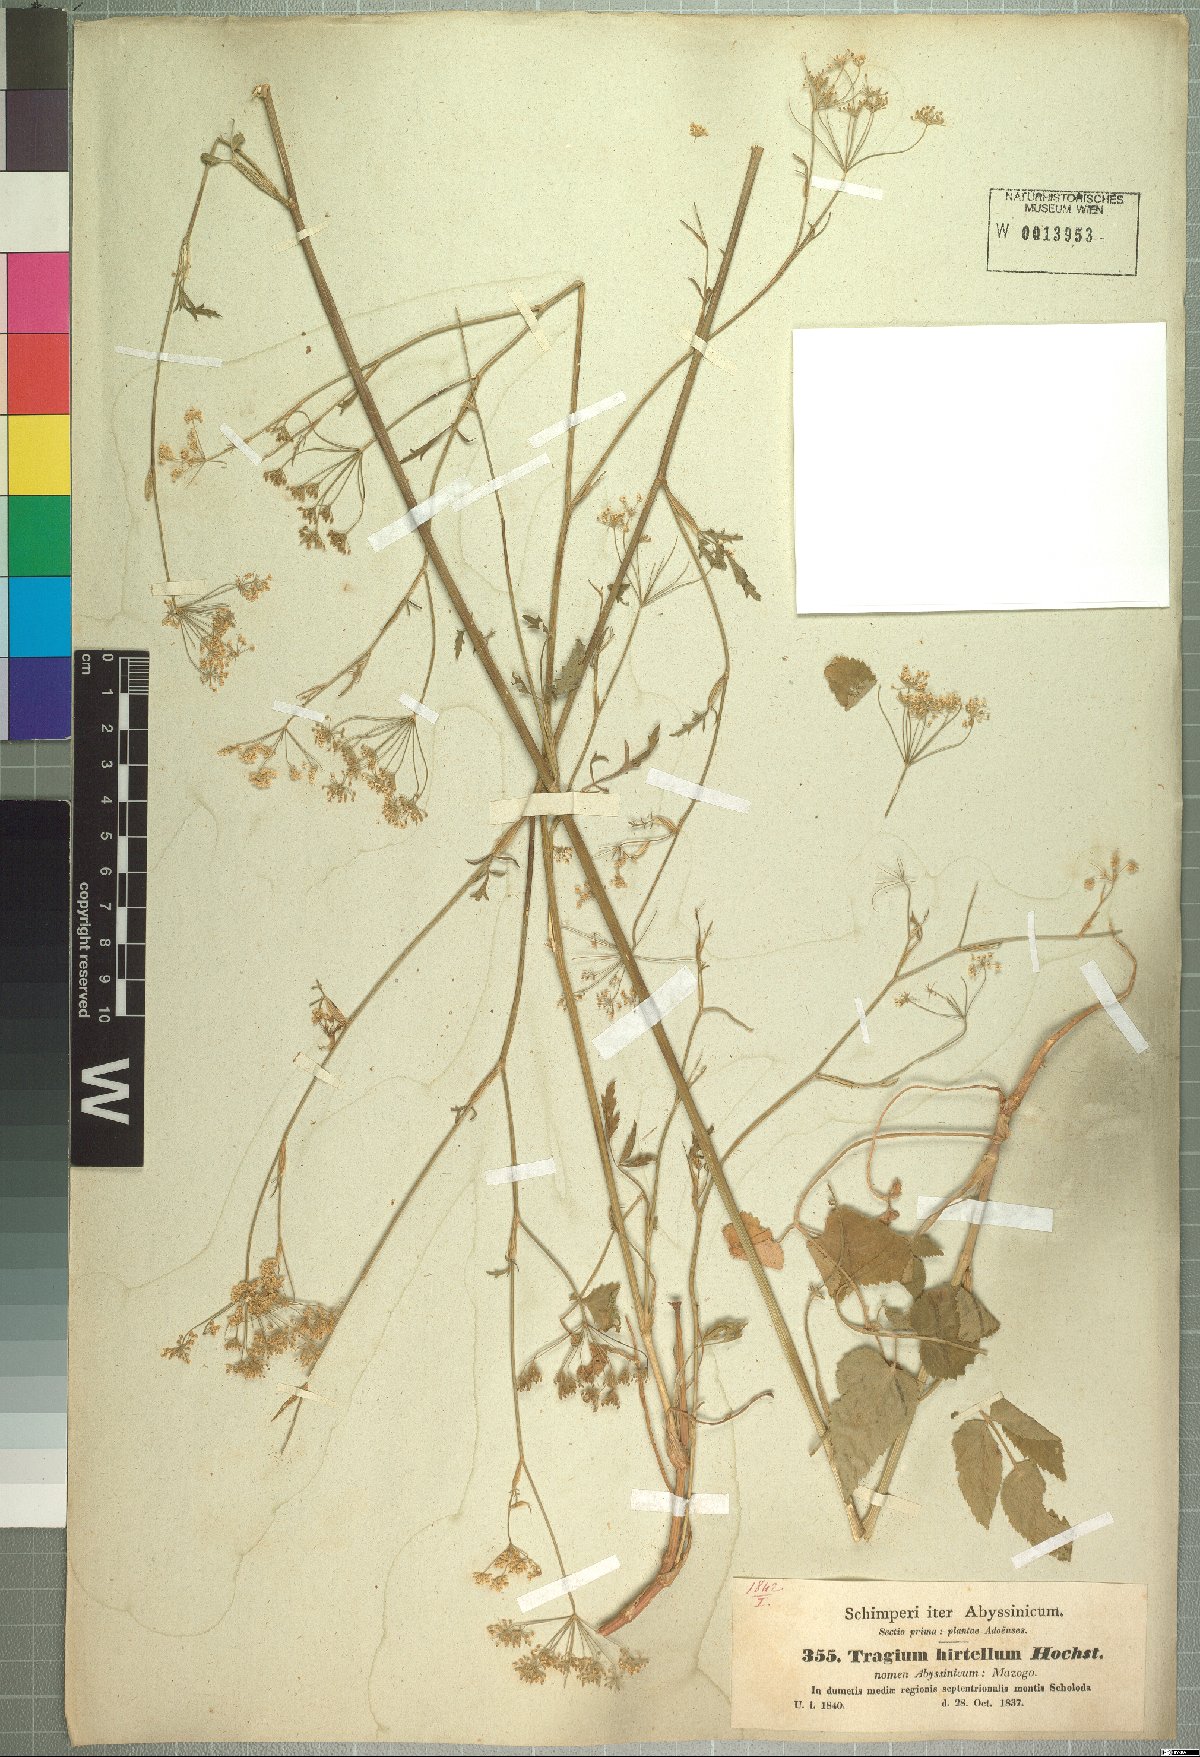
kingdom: Plantae
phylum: Tracheophyta
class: Magnoliopsida
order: Apiales
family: Apiaceae
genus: Pimpinella
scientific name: Pimpinella hirtella
